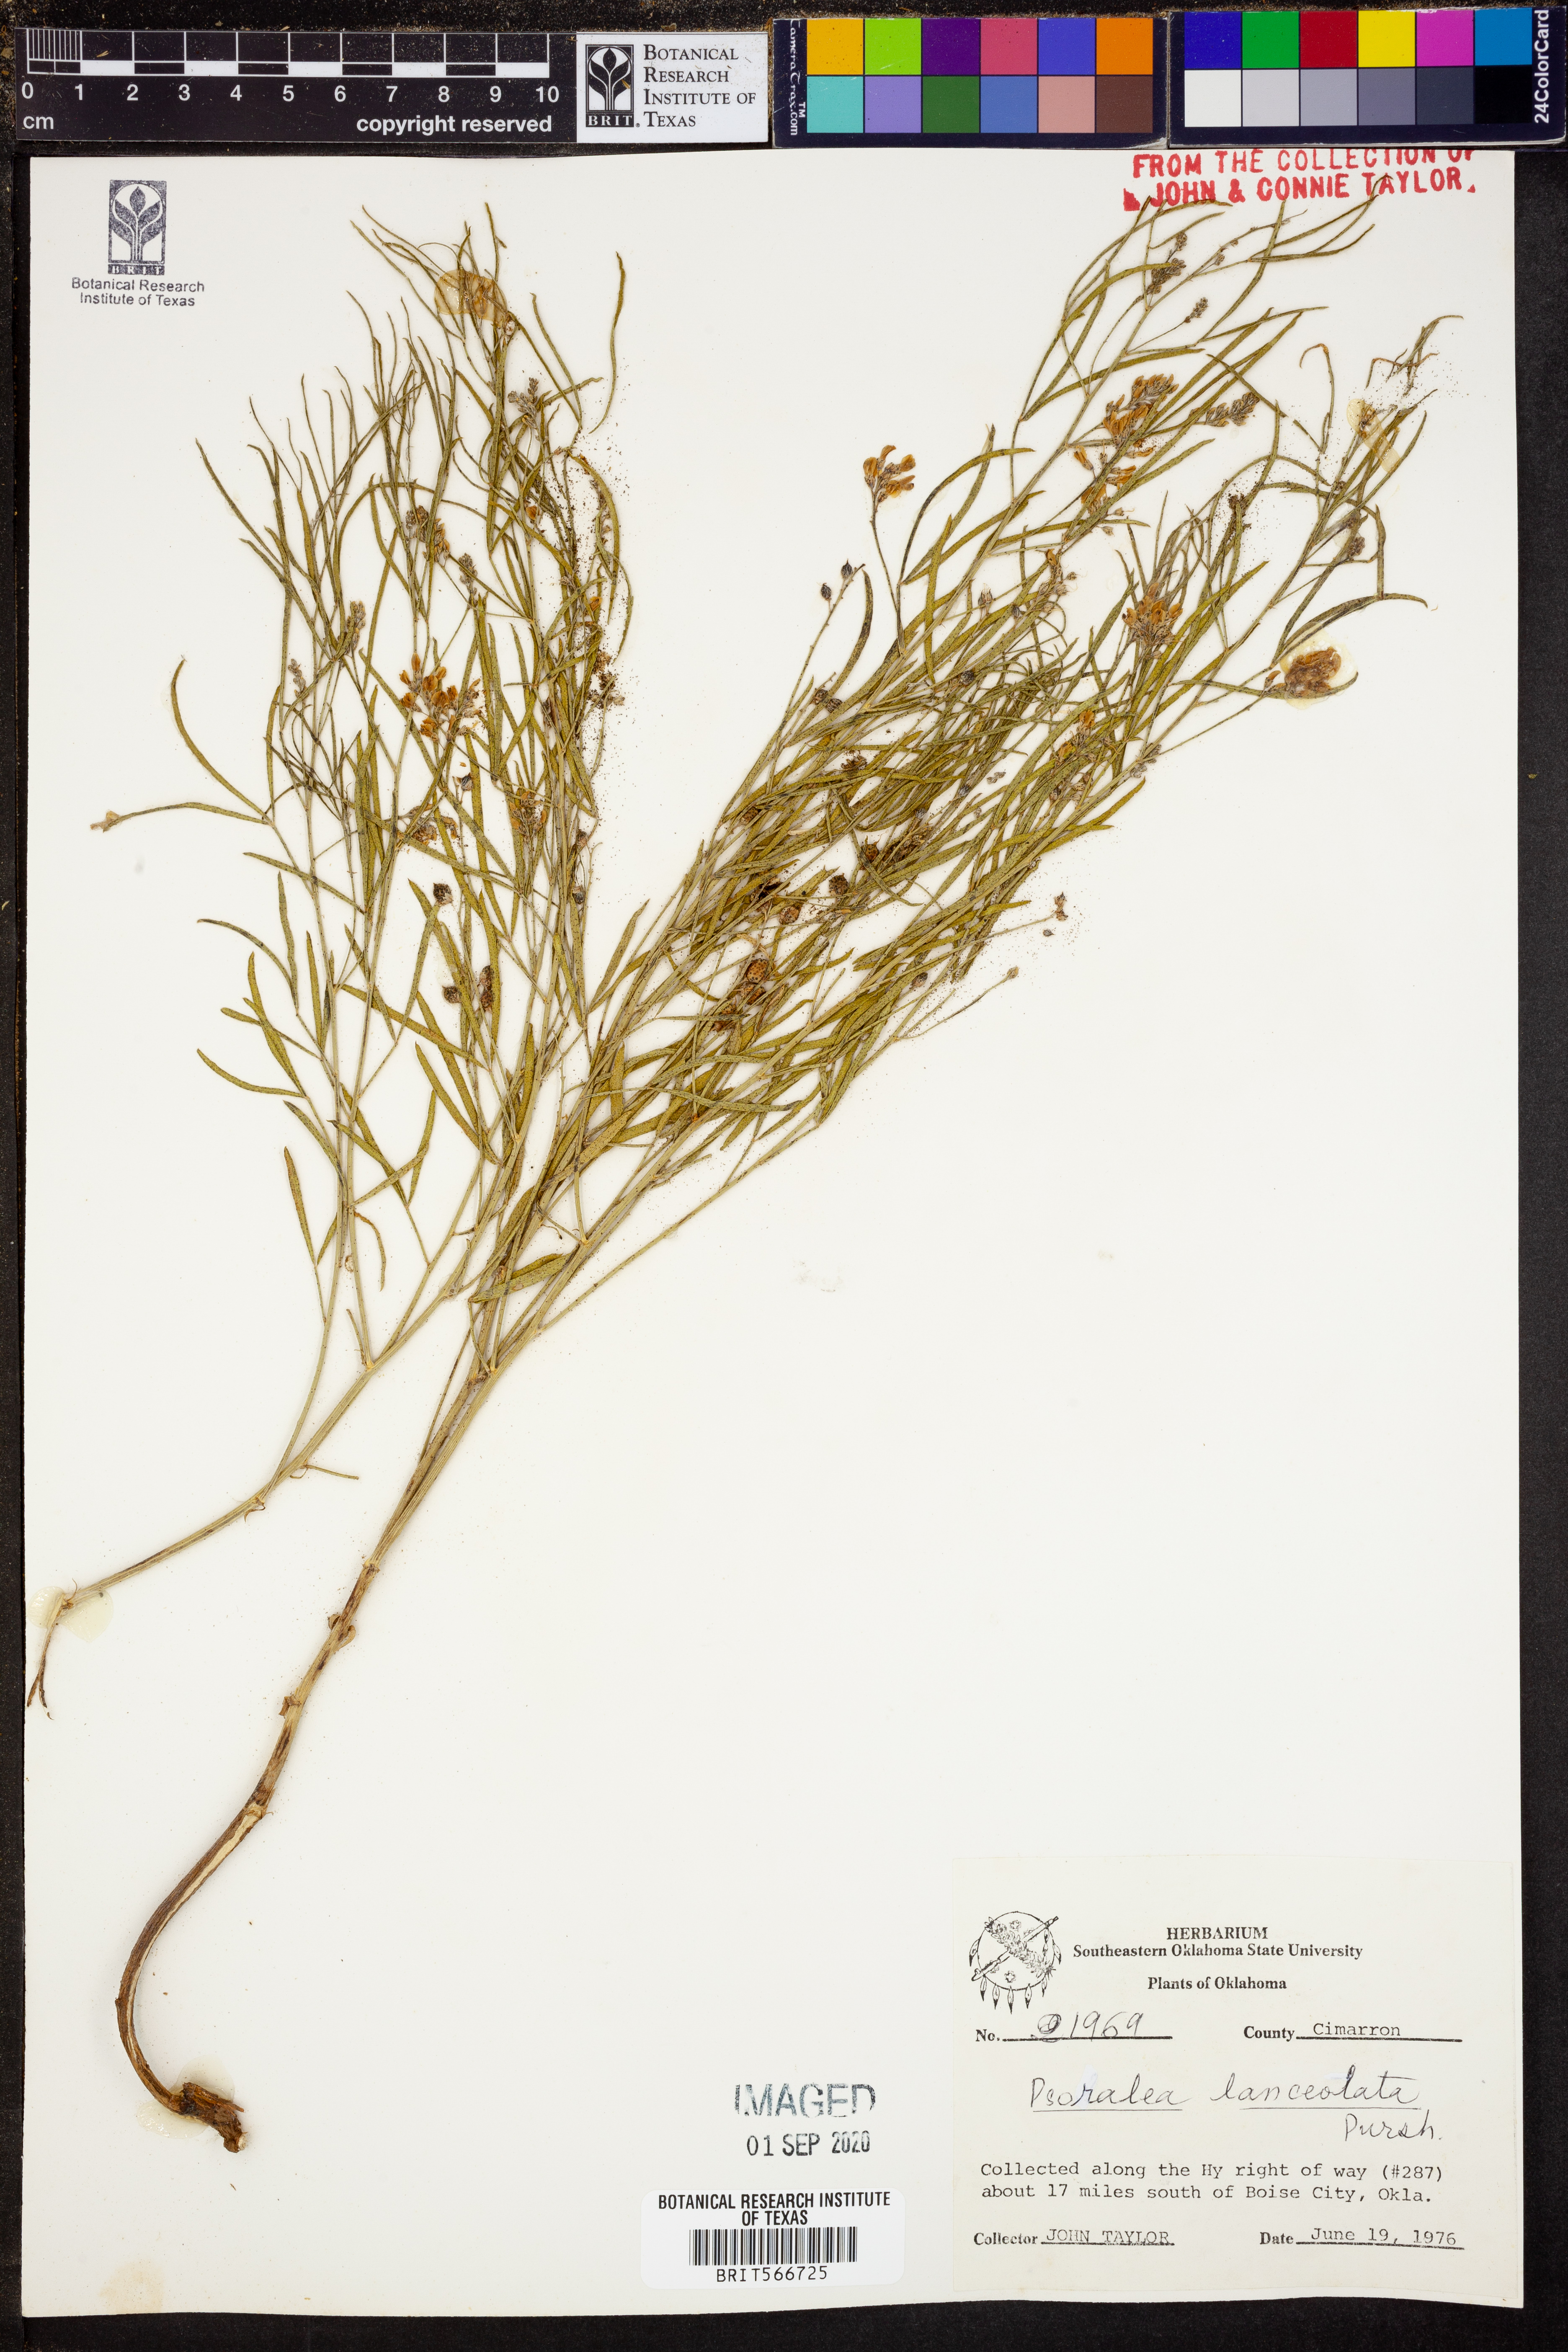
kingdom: Plantae
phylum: Tracheophyta
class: Magnoliopsida
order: Fabales
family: Fabaceae
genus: Ladeania
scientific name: Ladeania lanceolata
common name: Dune scurf-pea
